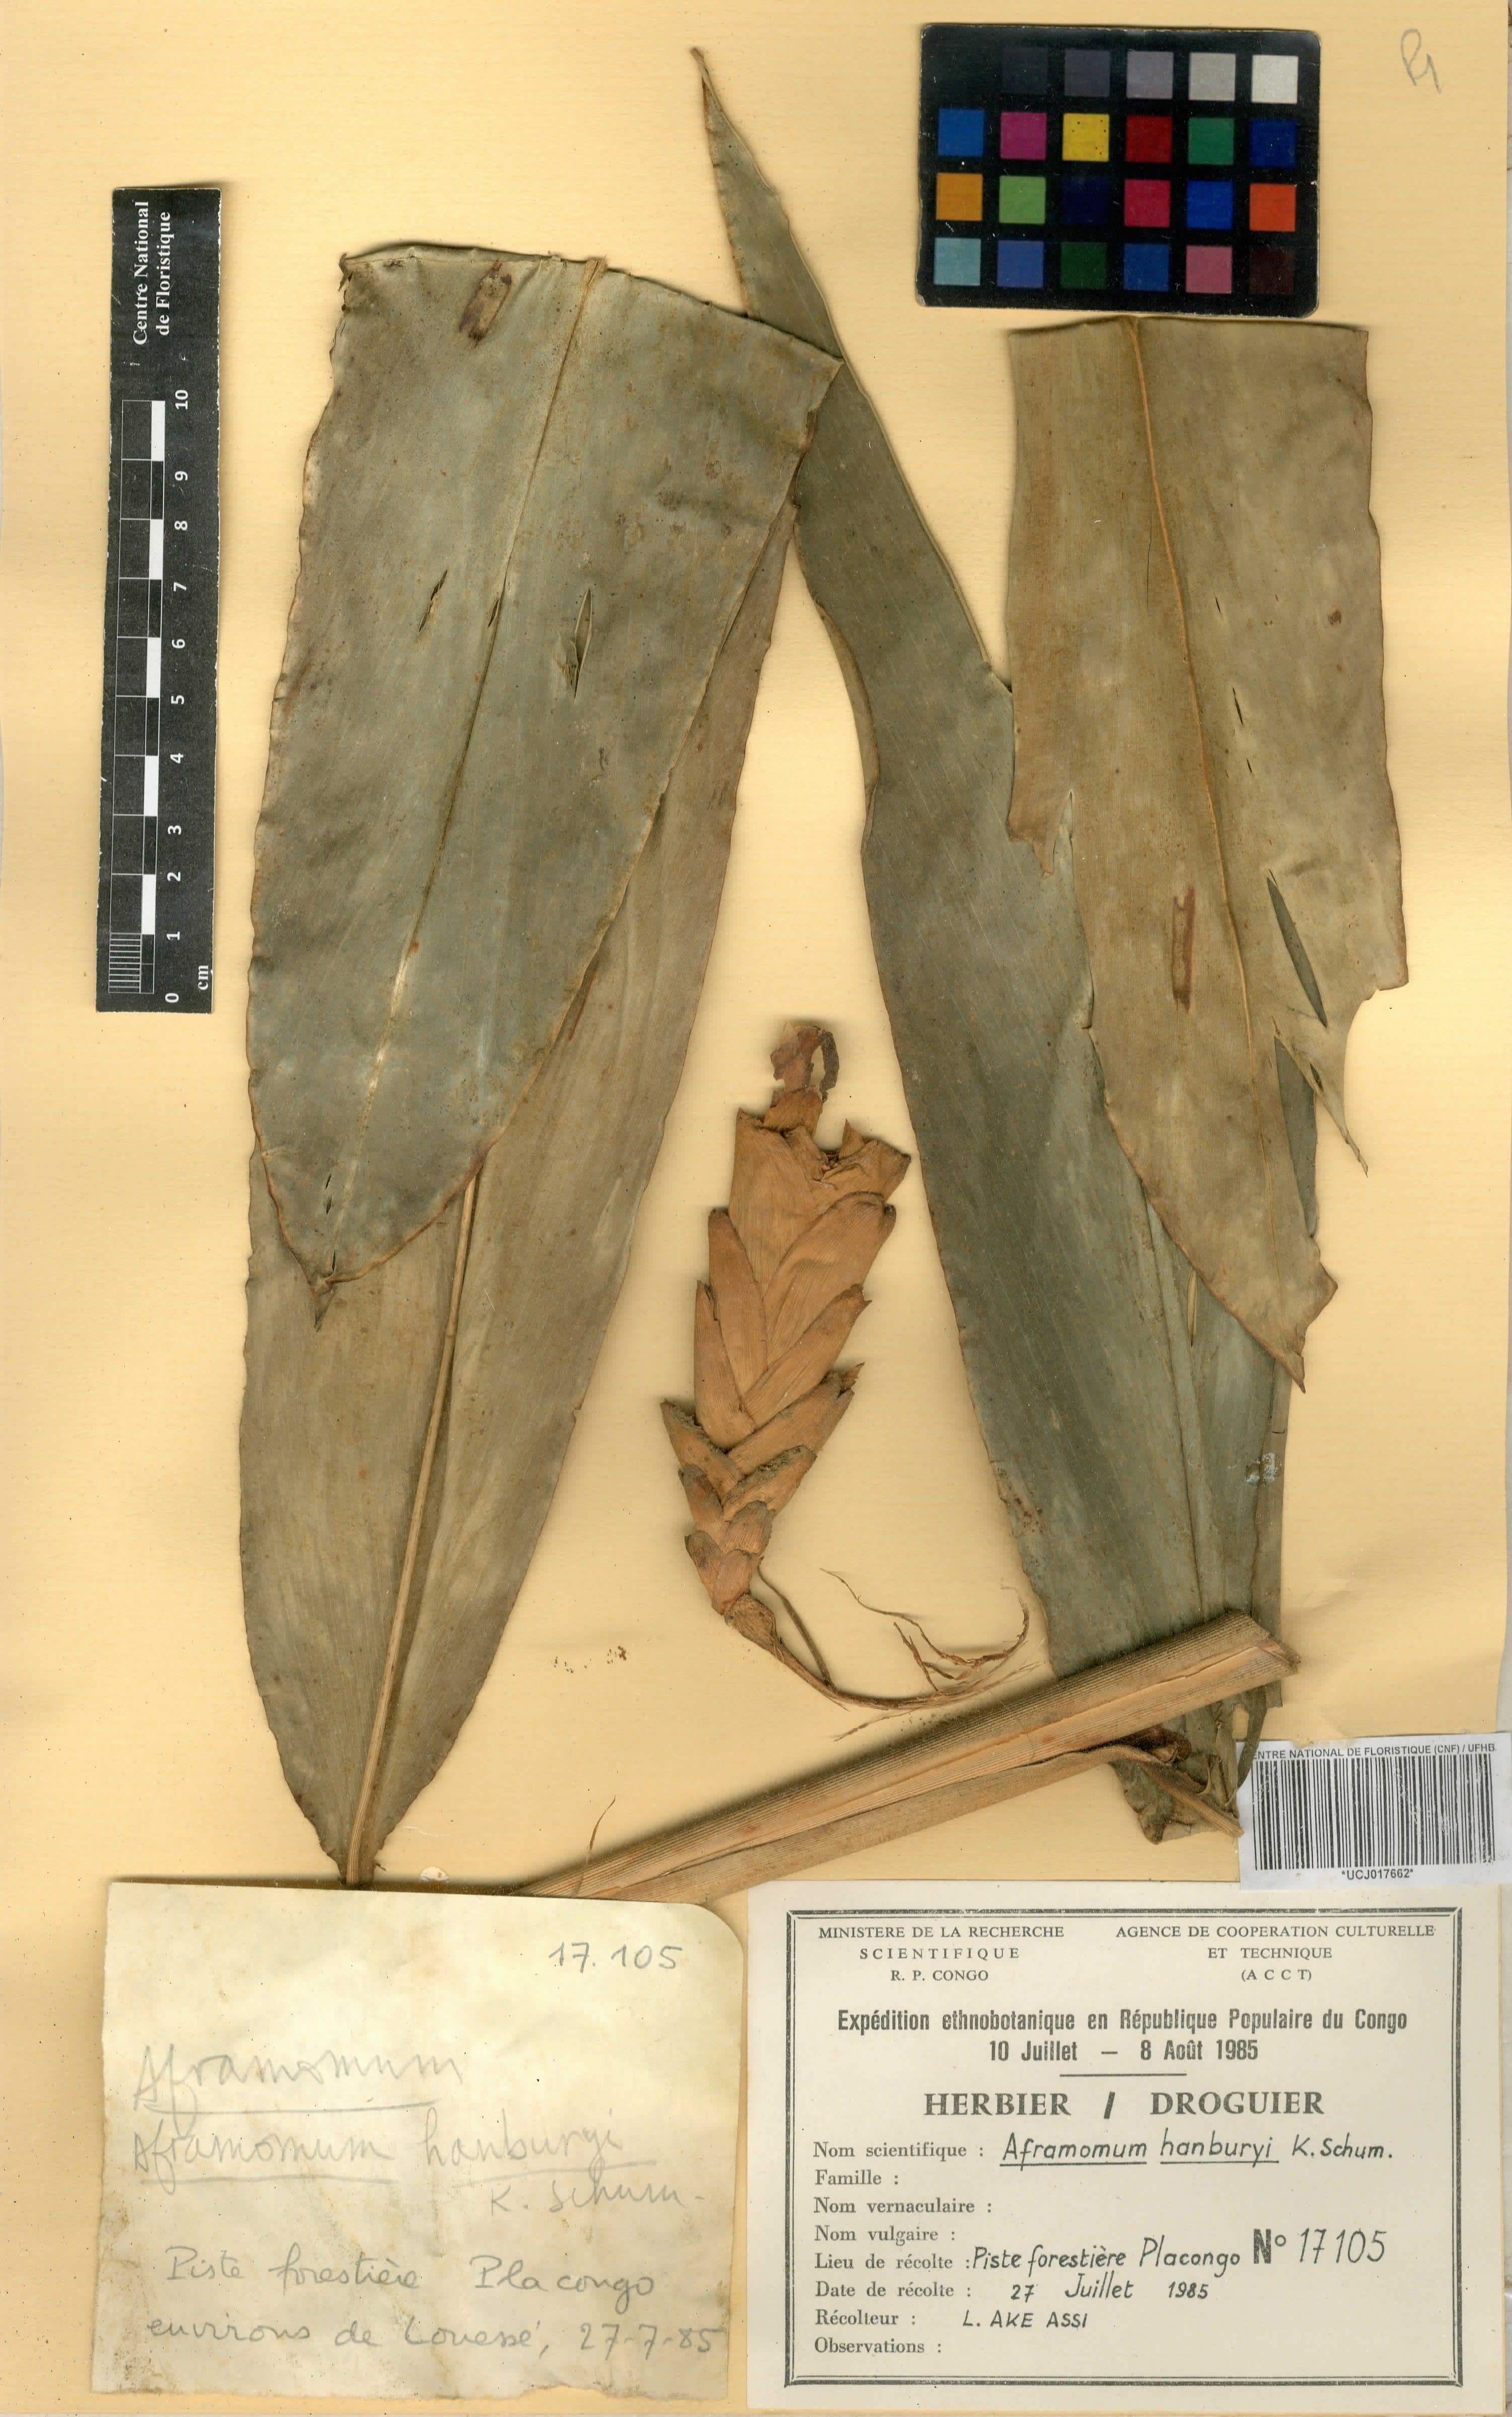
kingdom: Plantae
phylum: Tracheophyta
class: Liliopsida
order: Zingiberales
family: Zingiberaceae
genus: Aframomum
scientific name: Aframomum daniellii
